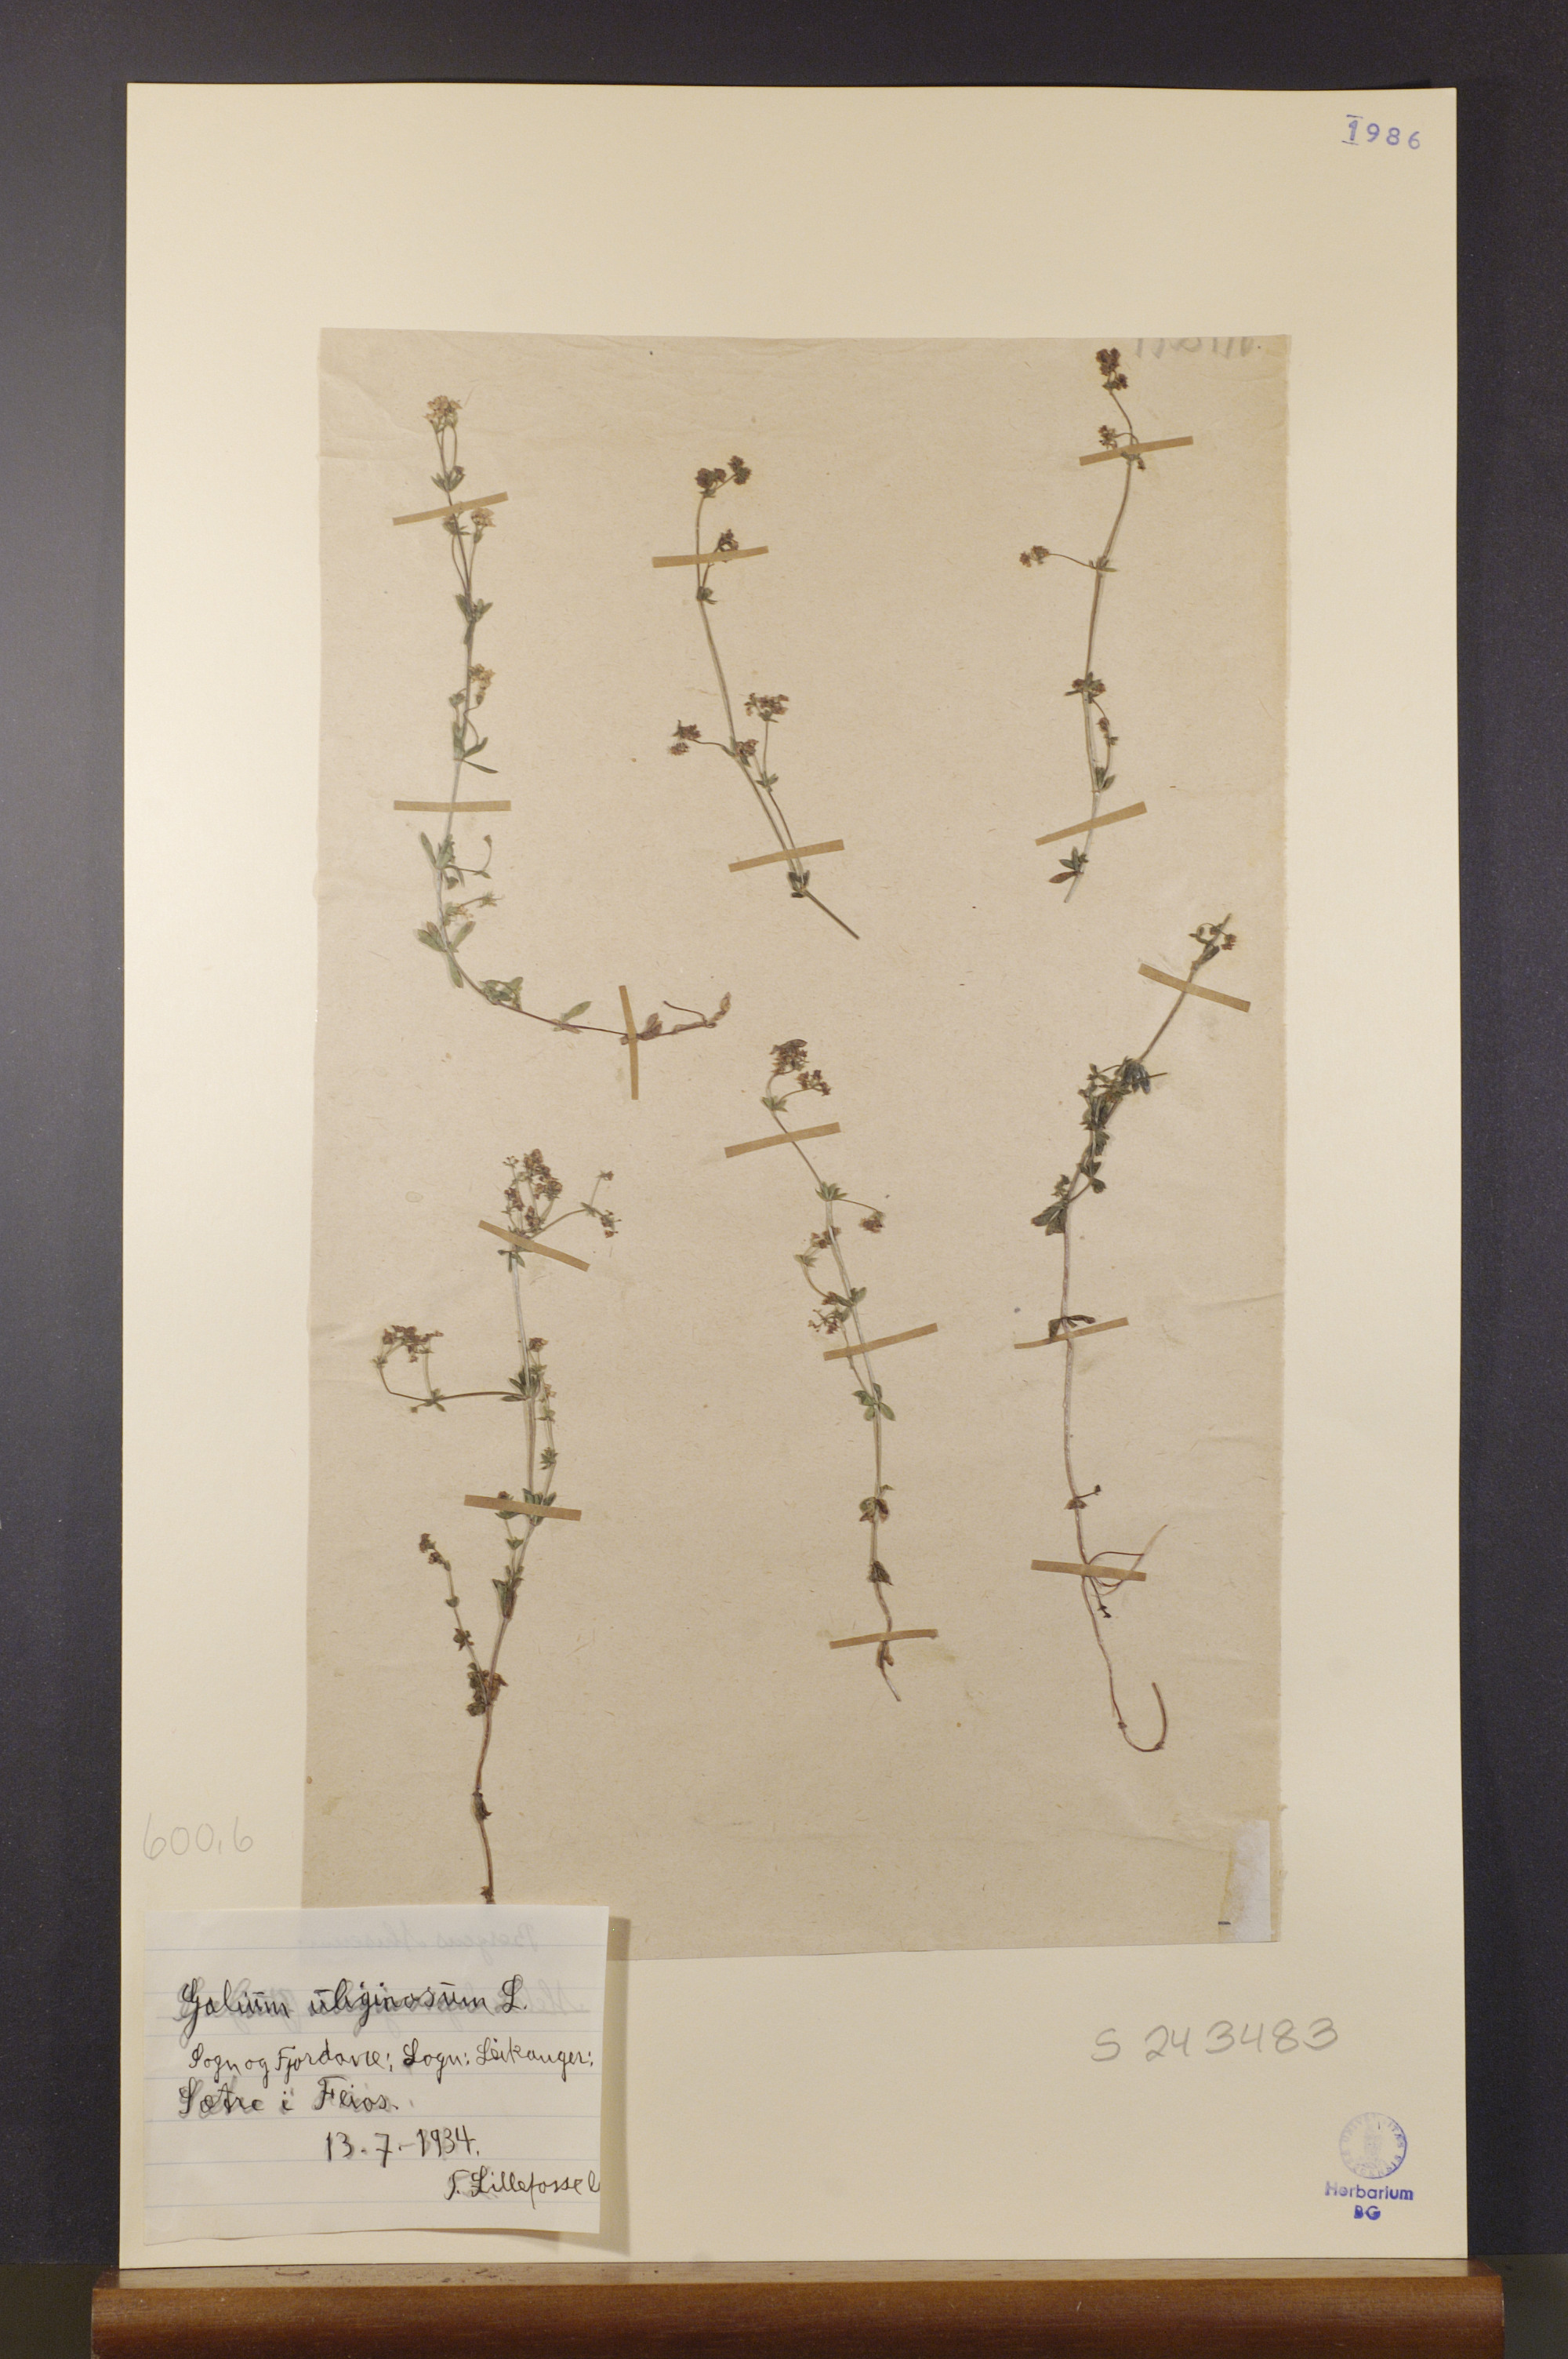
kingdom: Plantae
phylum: Tracheophyta
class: Magnoliopsida
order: Gentianales
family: Rubiaceae
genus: Galium
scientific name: Galium uliginosum
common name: Fen bedstraw
